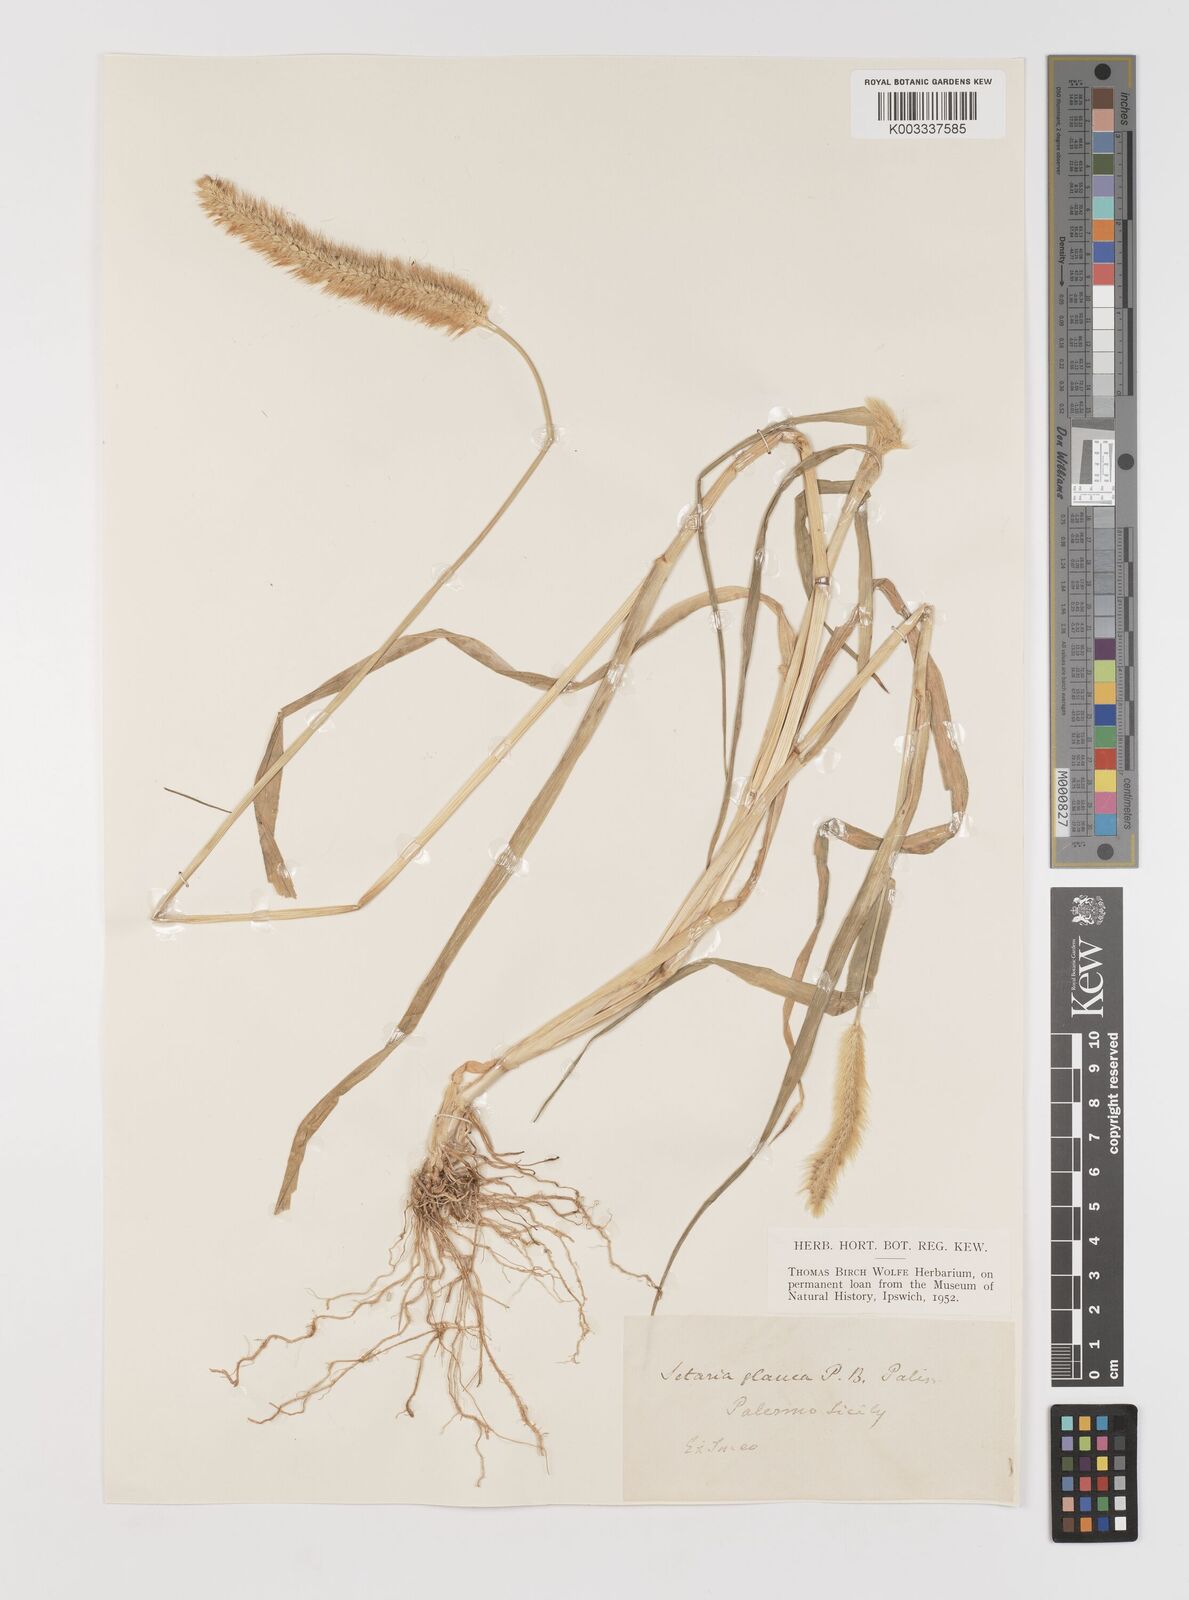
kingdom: Plantae
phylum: Tracheophyta
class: Liliopsida
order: Poales
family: Poaceae
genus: Setaria
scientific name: Setaria pumila
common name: Yellow bristle-grass
